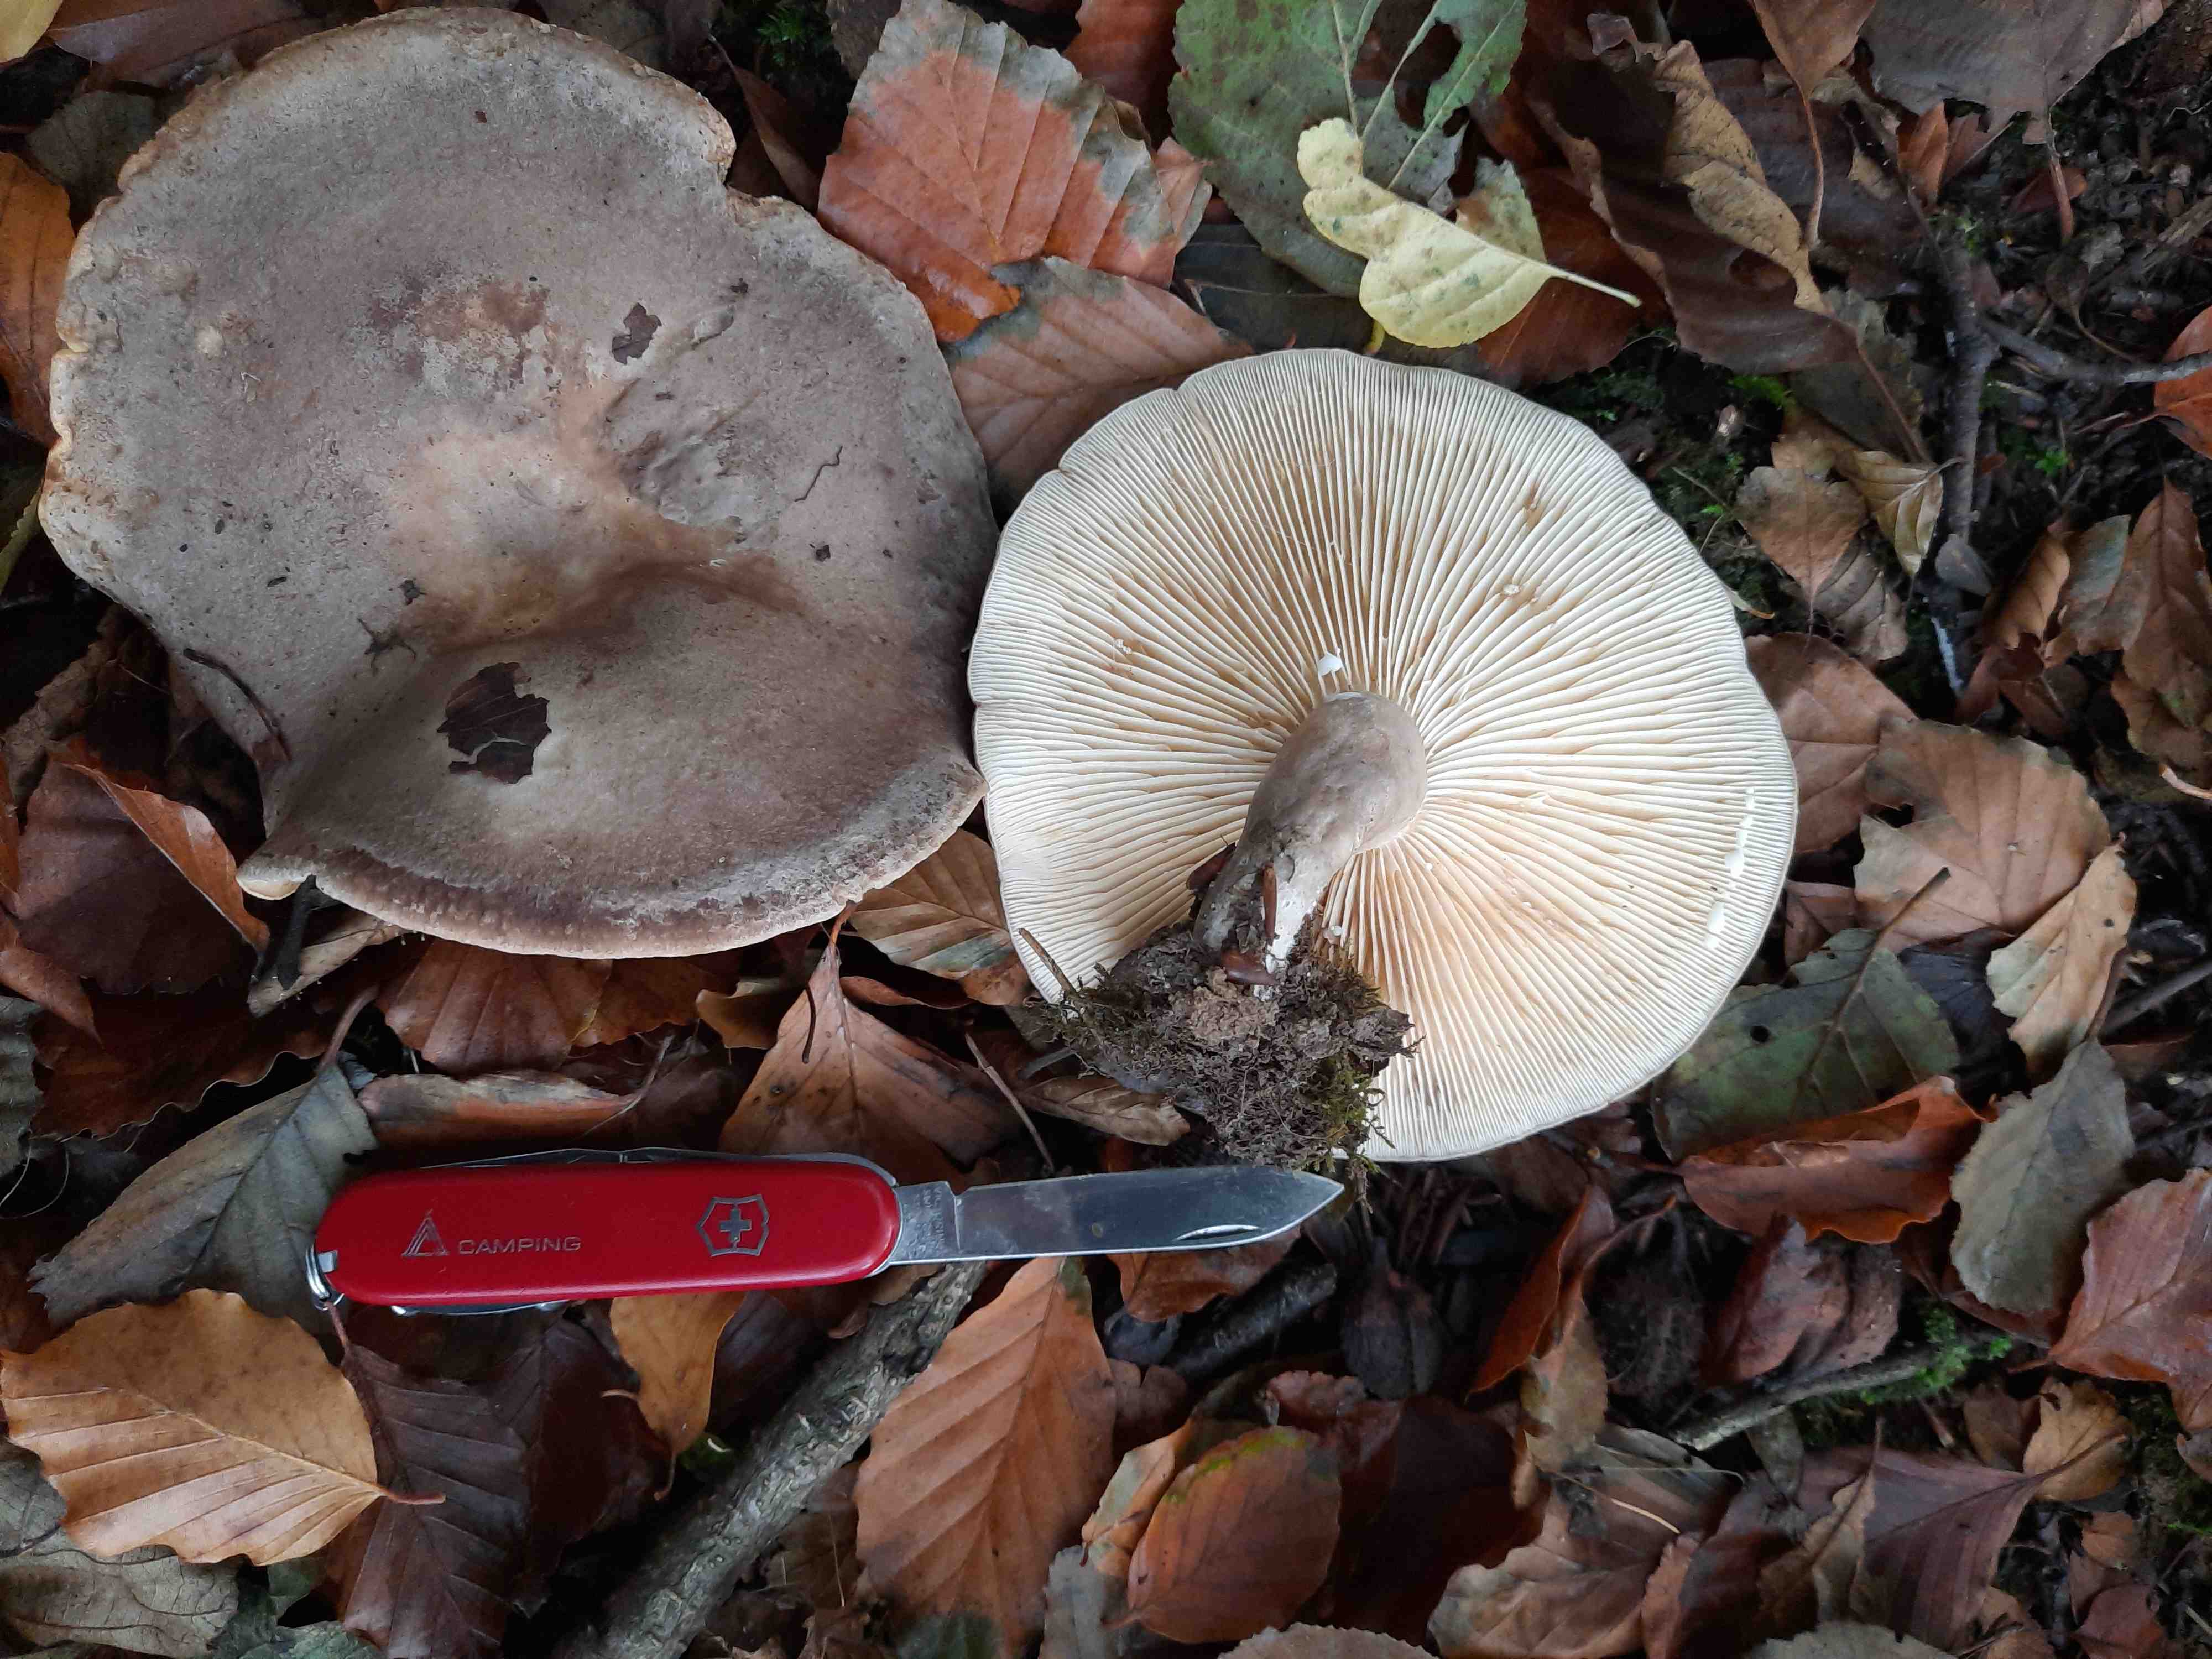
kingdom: Fungi
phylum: Basidiomycota
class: Agaricomycetes
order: Russulales
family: Russulaceae
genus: Lactarius
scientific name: Lactarius blennius
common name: dråbeplettet mælkehat
